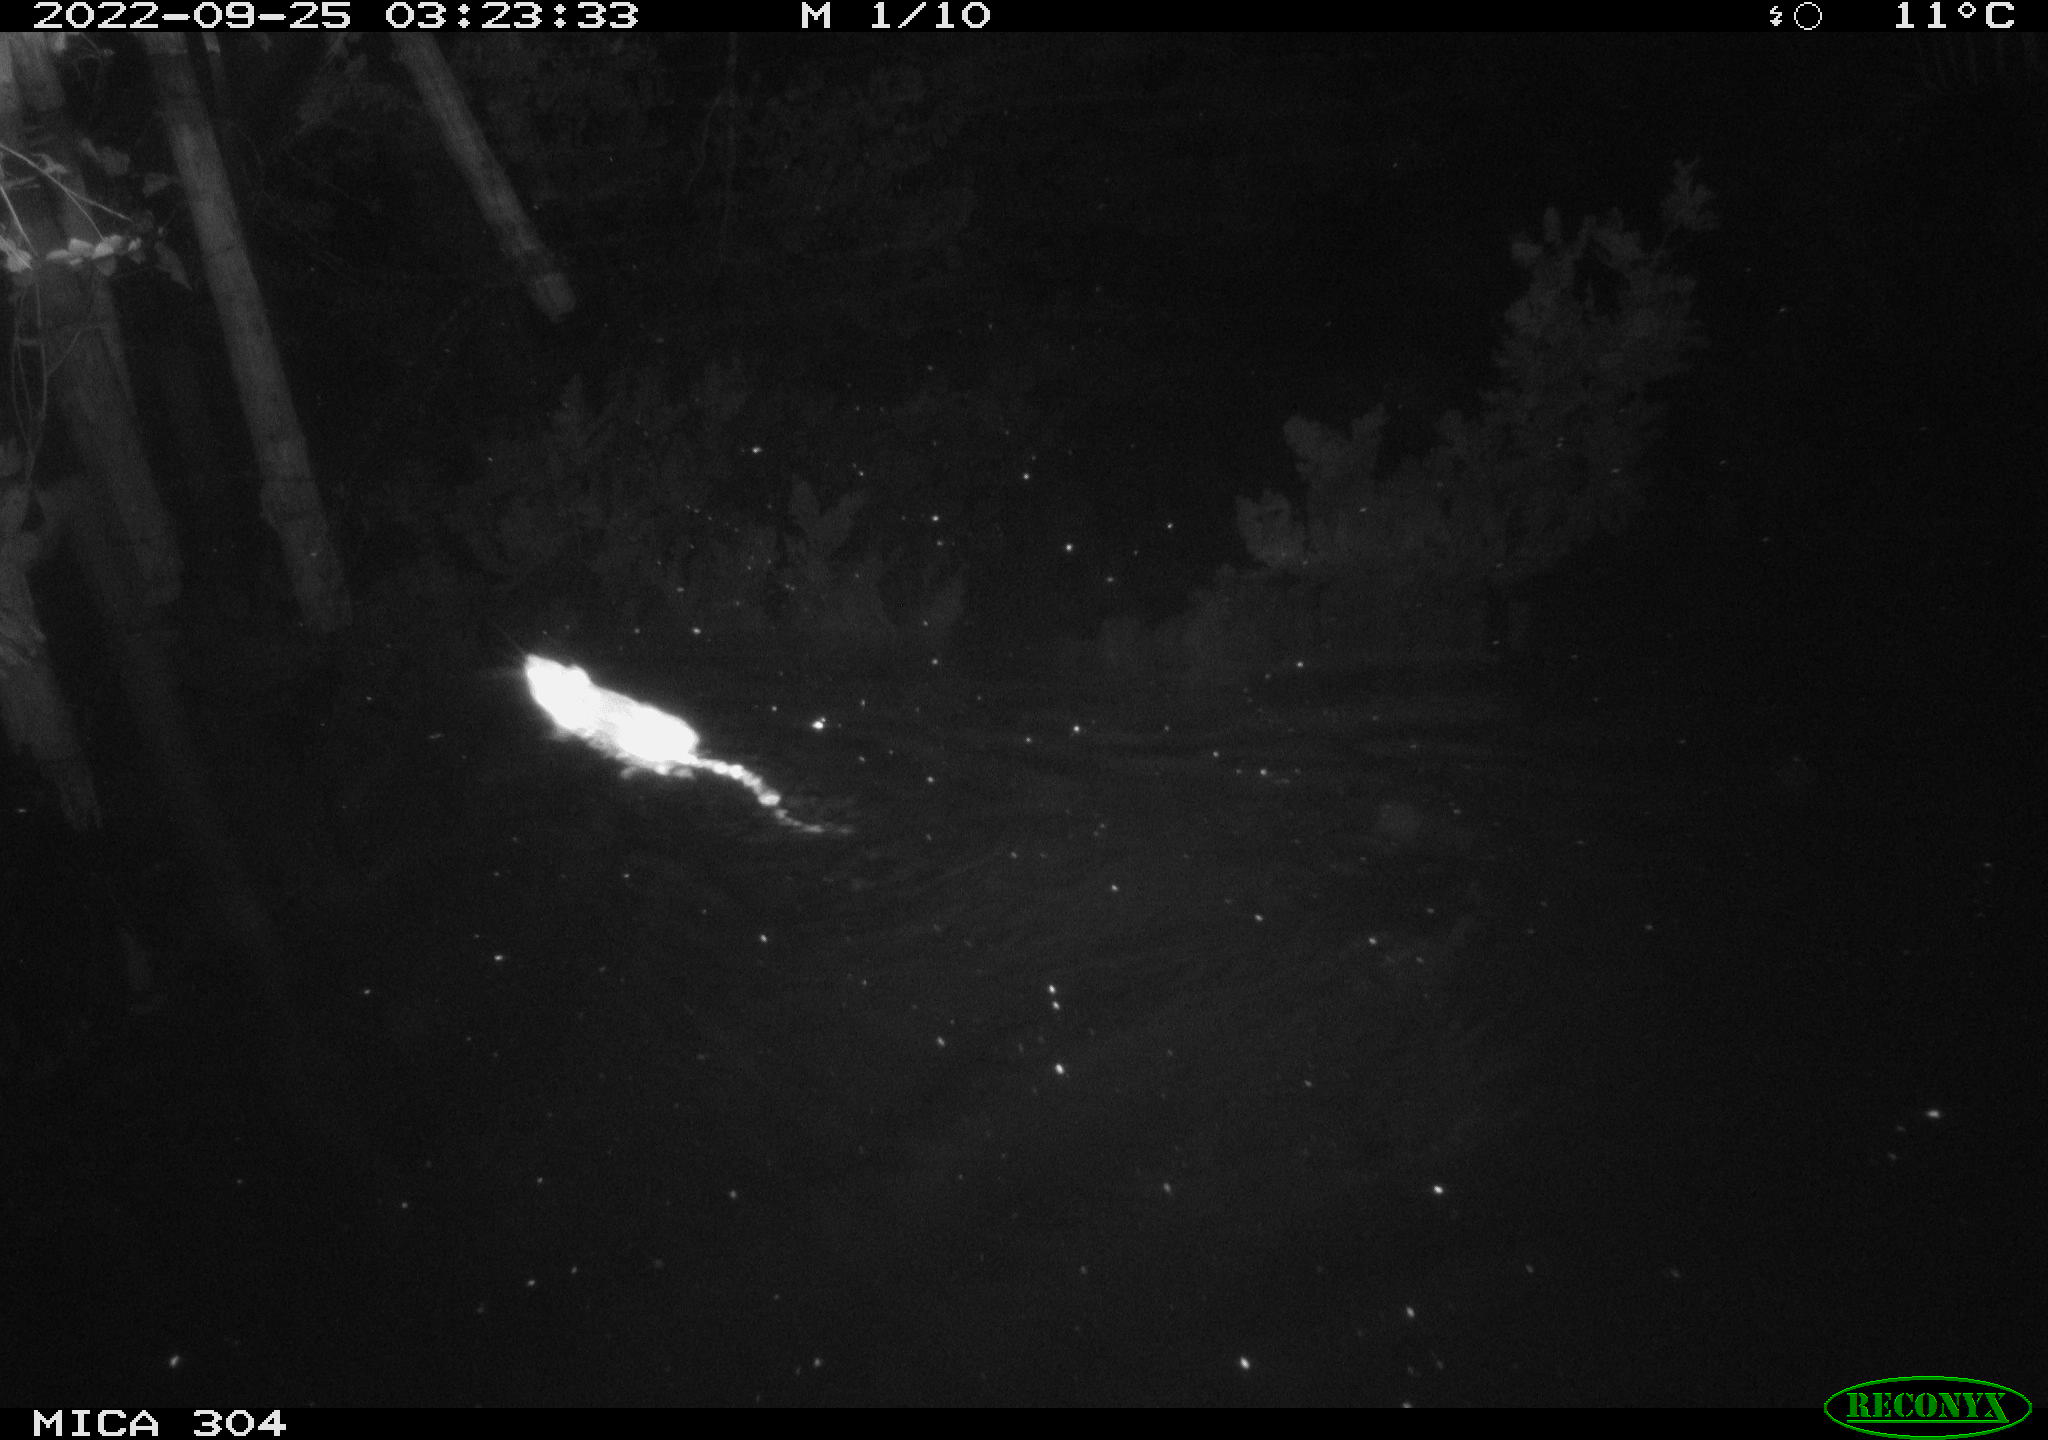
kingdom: Animalia
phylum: Chordata
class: Mammalia
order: Rodentia
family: Muridae
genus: Rattus
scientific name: Rattus norvegicus
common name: Brown rat
